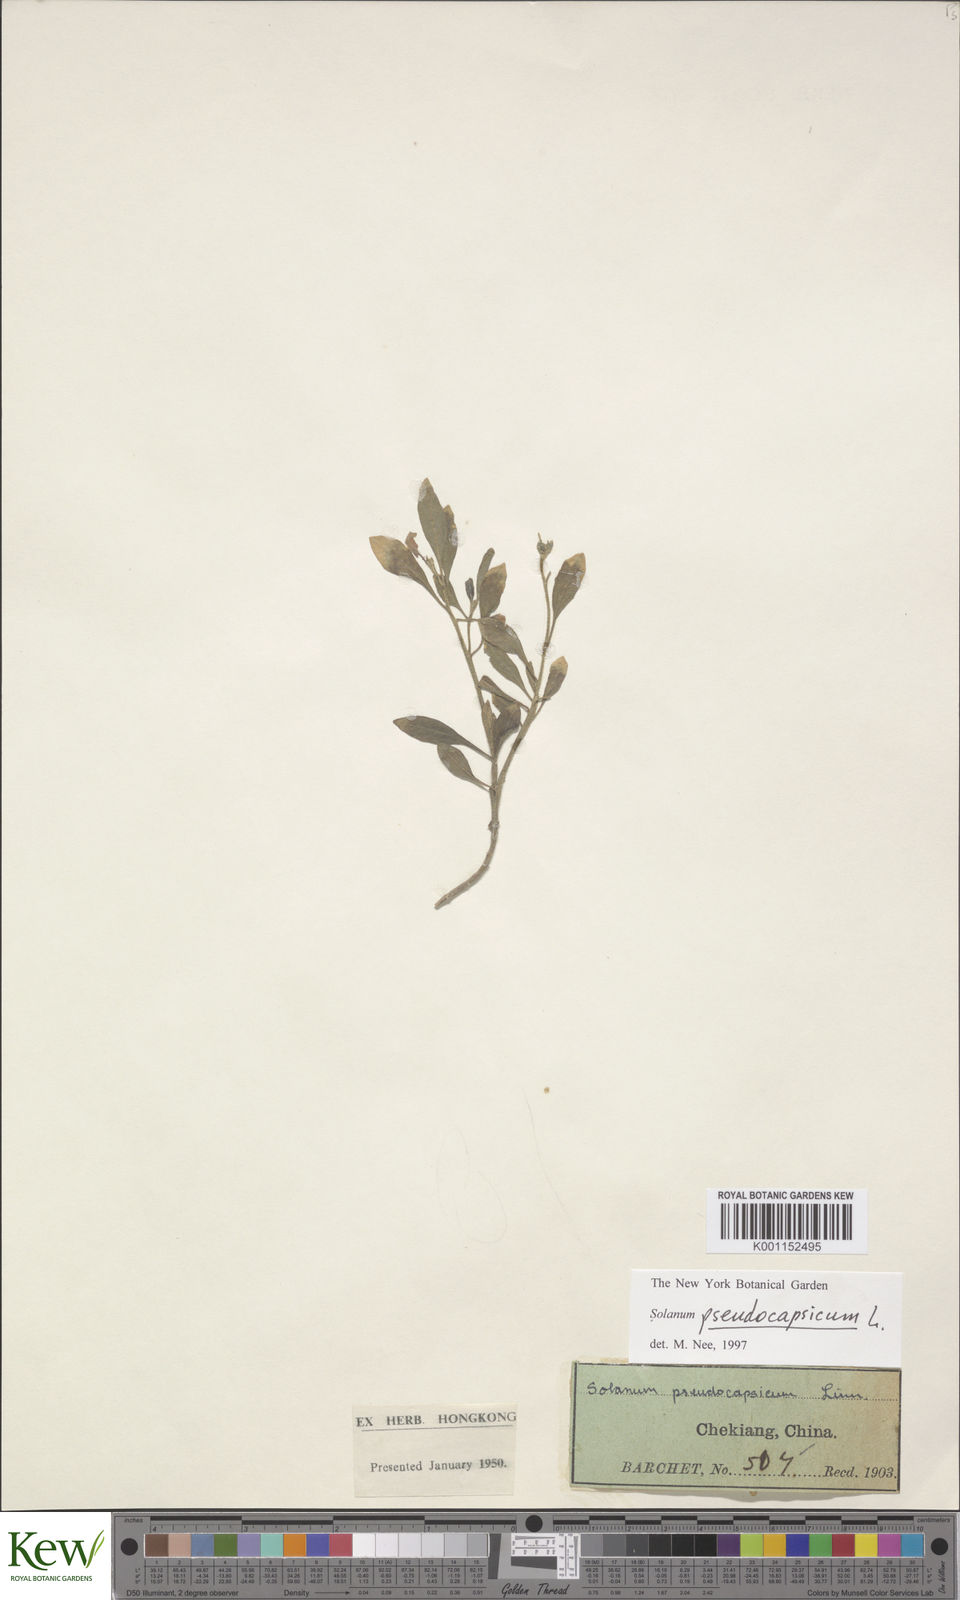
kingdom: Plantae
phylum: Tracheophyta
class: Magnoliopsida
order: Solanales
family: Solanaceae
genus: Solanum
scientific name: Solanum pseudocapsicum
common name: Jerusalem cherry
